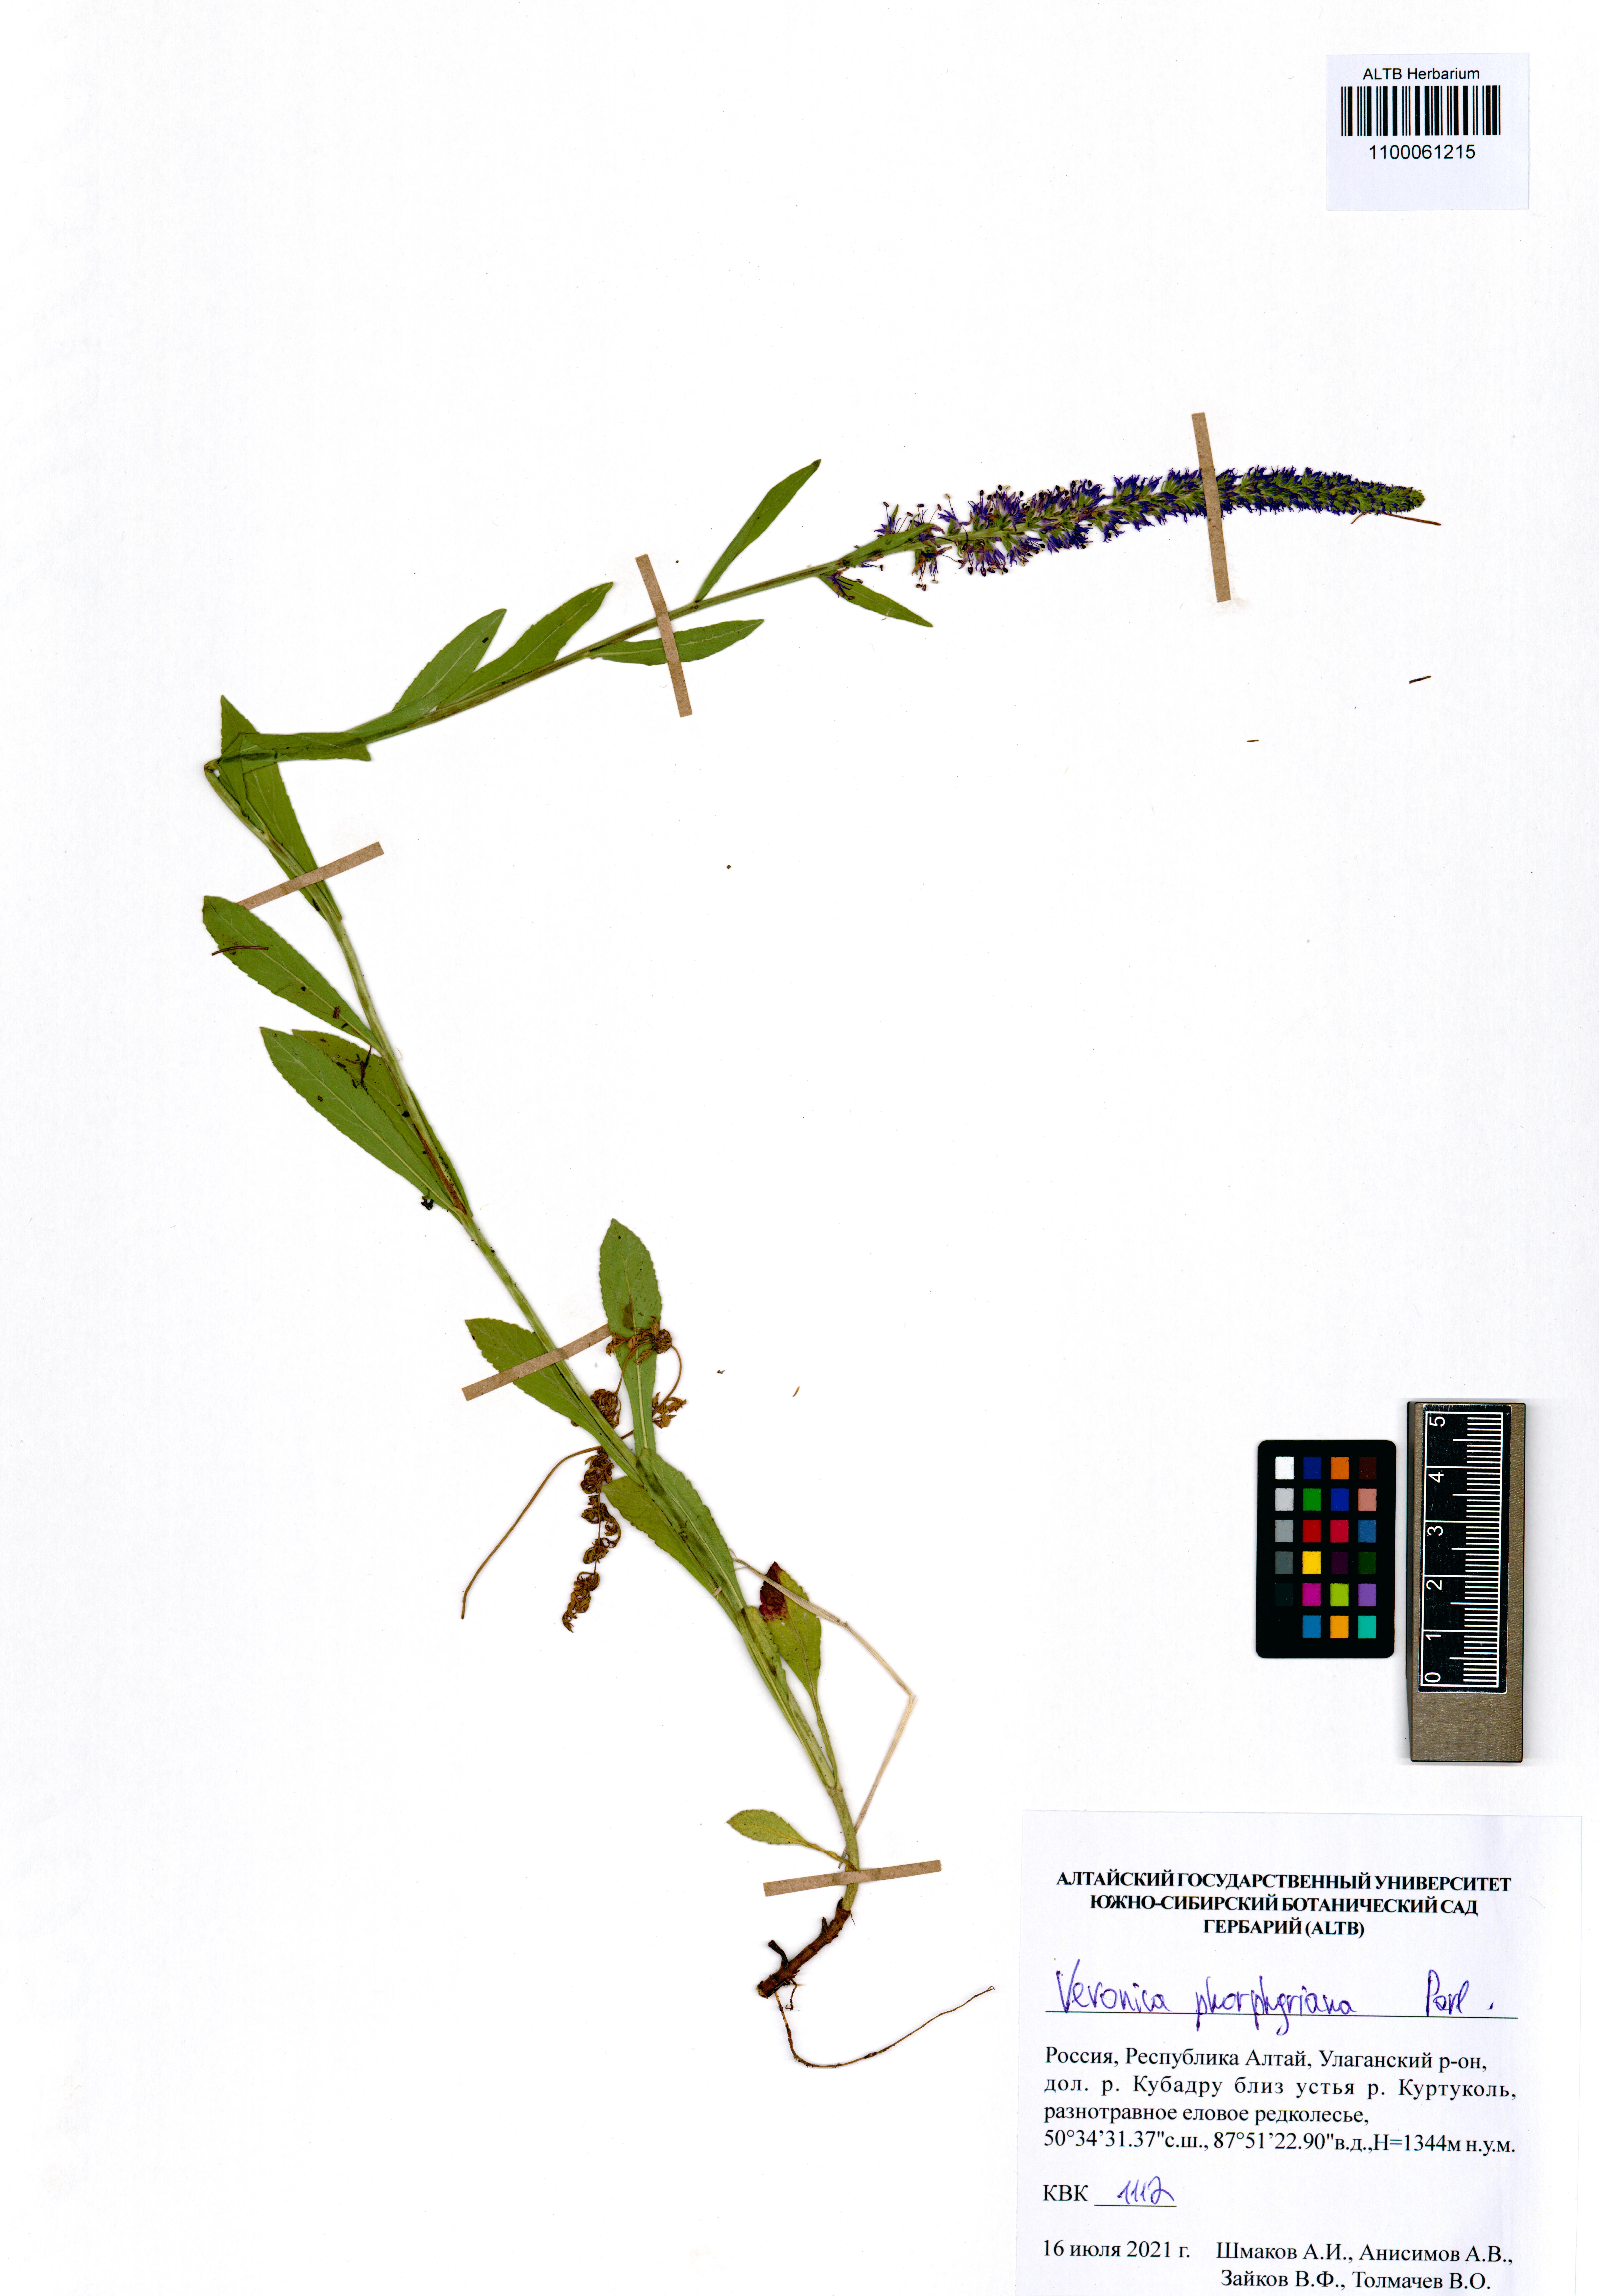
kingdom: Plantae
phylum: Tracheophyta
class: Magnoliopsida
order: Lamiales
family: Plantaginaceae
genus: Veronica
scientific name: Veronica porphyriana
